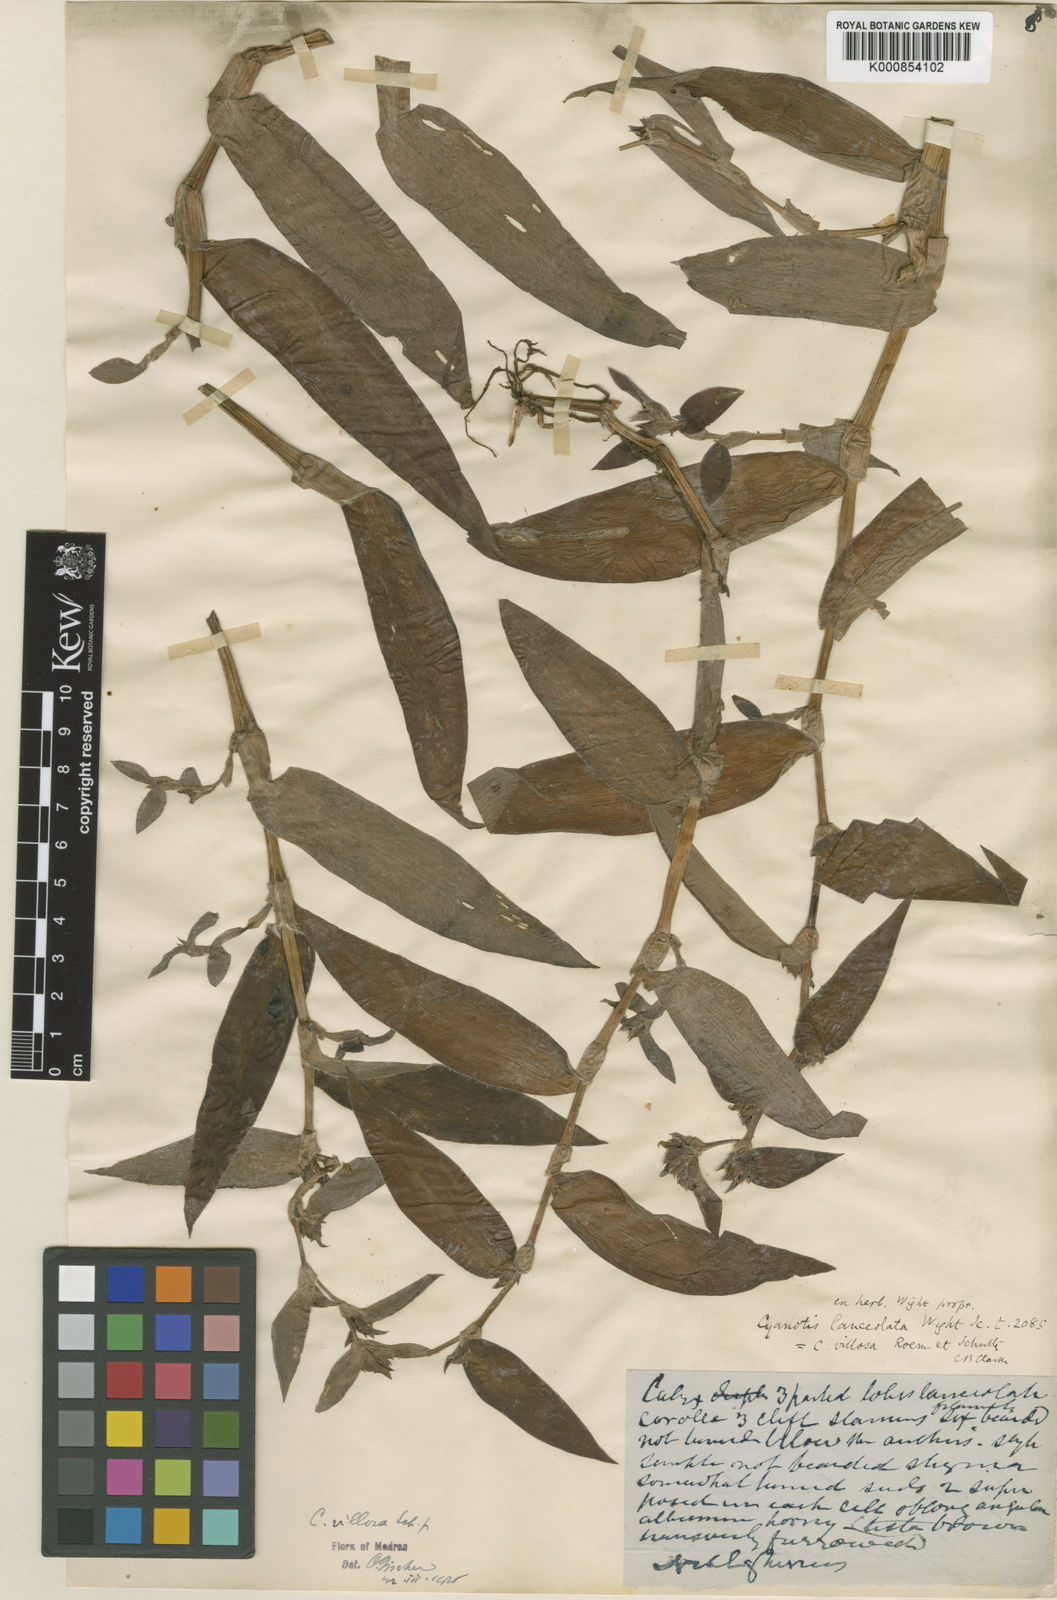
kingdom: Plantae
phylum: Tracheophyta
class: Liliopsida
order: Commelinales
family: Commelinaceae
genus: Cyanotis
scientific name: Cyanotis villosa
